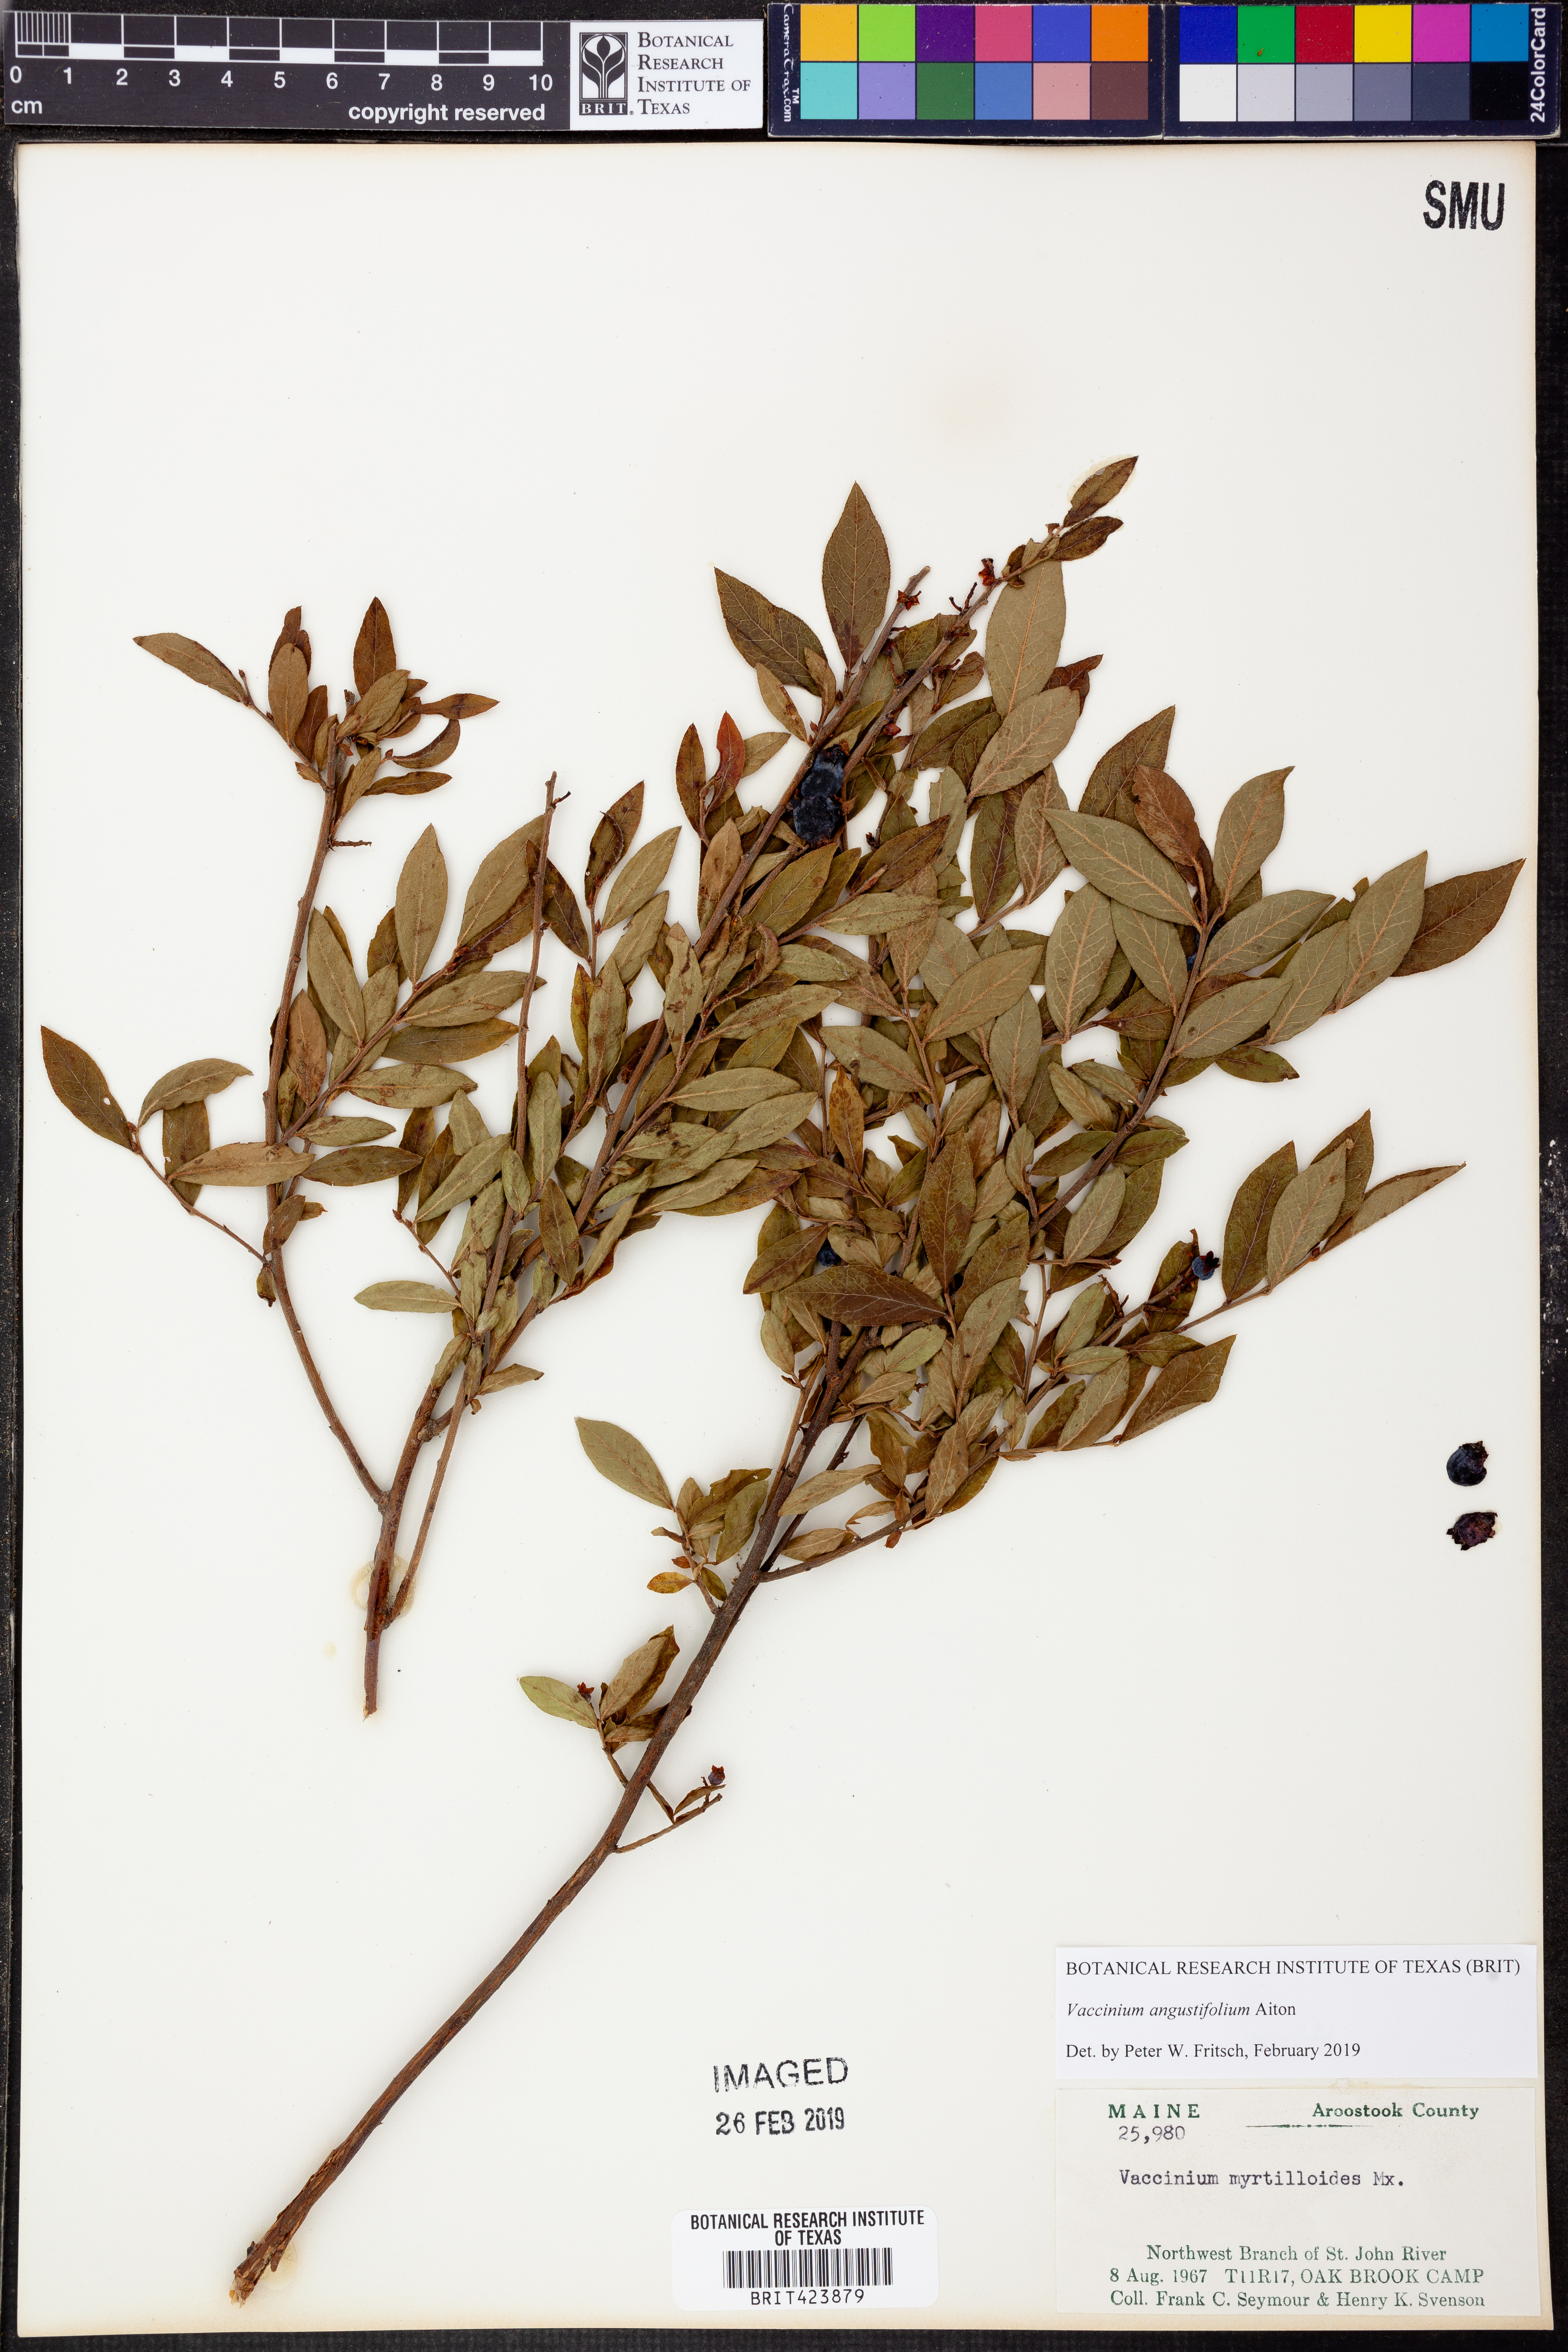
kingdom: Plantae
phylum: Tracheophyta
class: Magnoliopsida
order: Ericales
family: Ericaceae
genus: Vaccinium
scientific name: Vaccinium angustifolium
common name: Early lowbush blueberry
